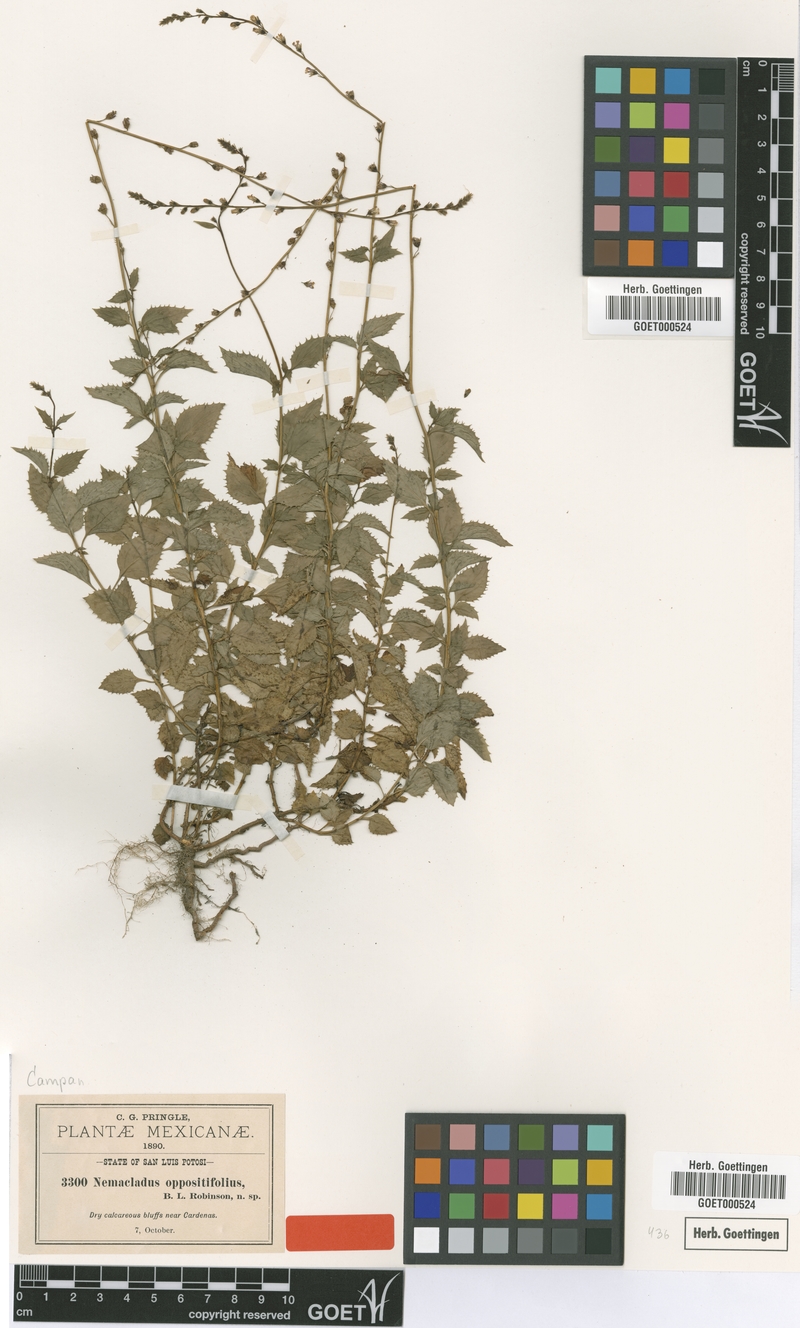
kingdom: Plantae
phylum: Tracheophyta
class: Magnoliopsida
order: Asterales
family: Campanulaceae
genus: Pseudonemacladus
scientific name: Pseudonemacladus oppositifolius
